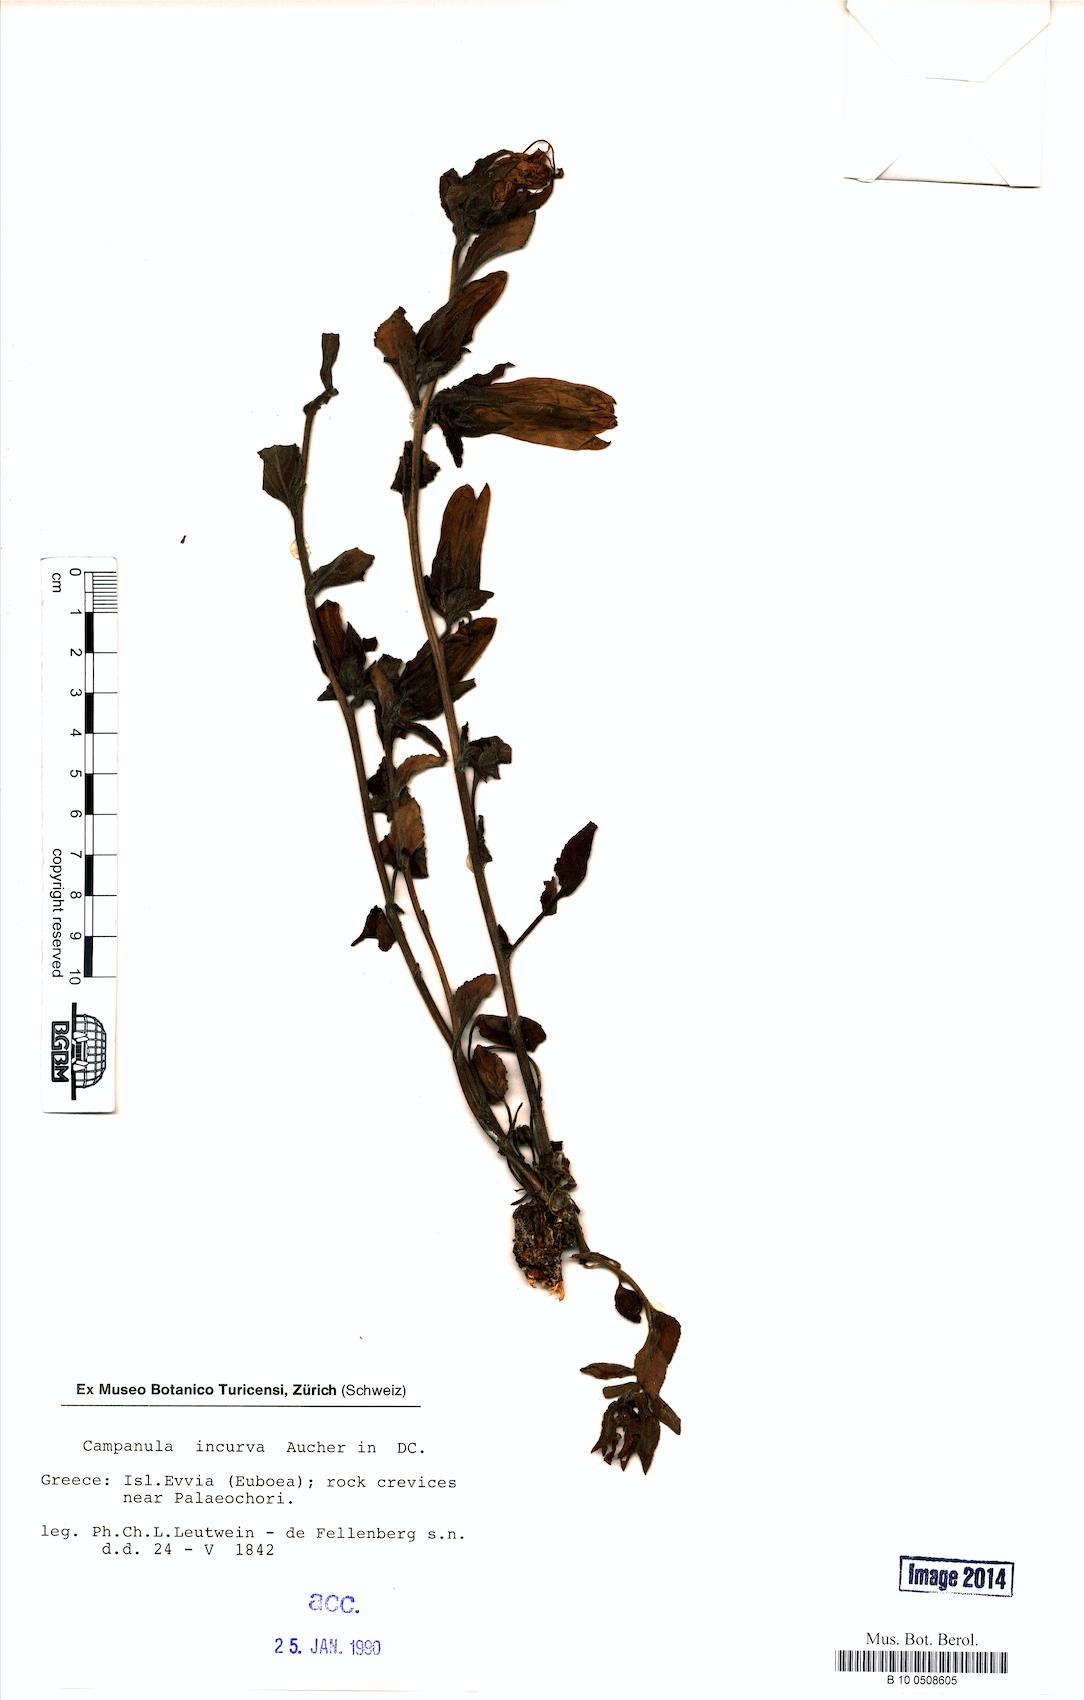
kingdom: Plantae
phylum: Tracheophyta
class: Magnoliopsida
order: Asterales
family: Campanulaceae
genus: Campanula
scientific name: Campanula incurva
